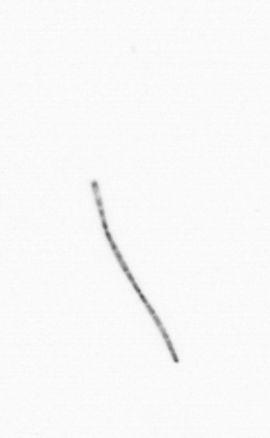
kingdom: Chromista
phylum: Ochrophyta
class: Bacillariophyceae
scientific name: Bacillariophyceae
